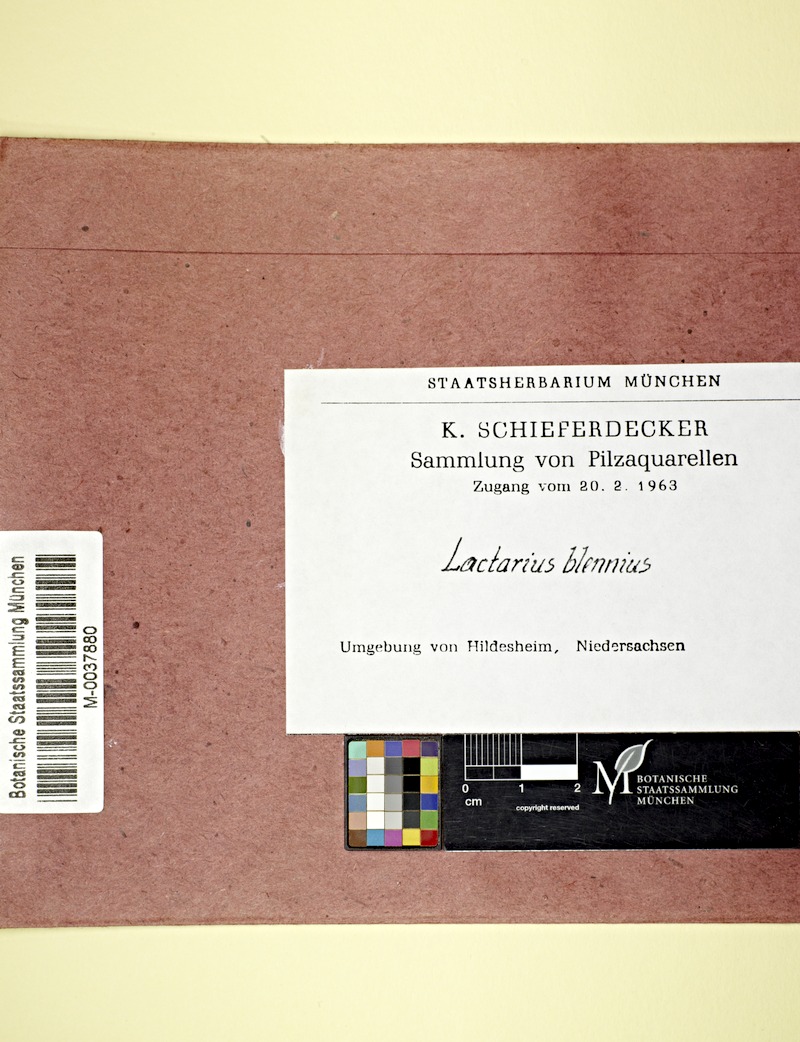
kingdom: Fungi
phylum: Basidiomycota
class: Agaricomycetes
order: Russulales
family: Russulaceae
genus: Lactarius
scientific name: Lactarius blennius
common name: Beech milkcap
